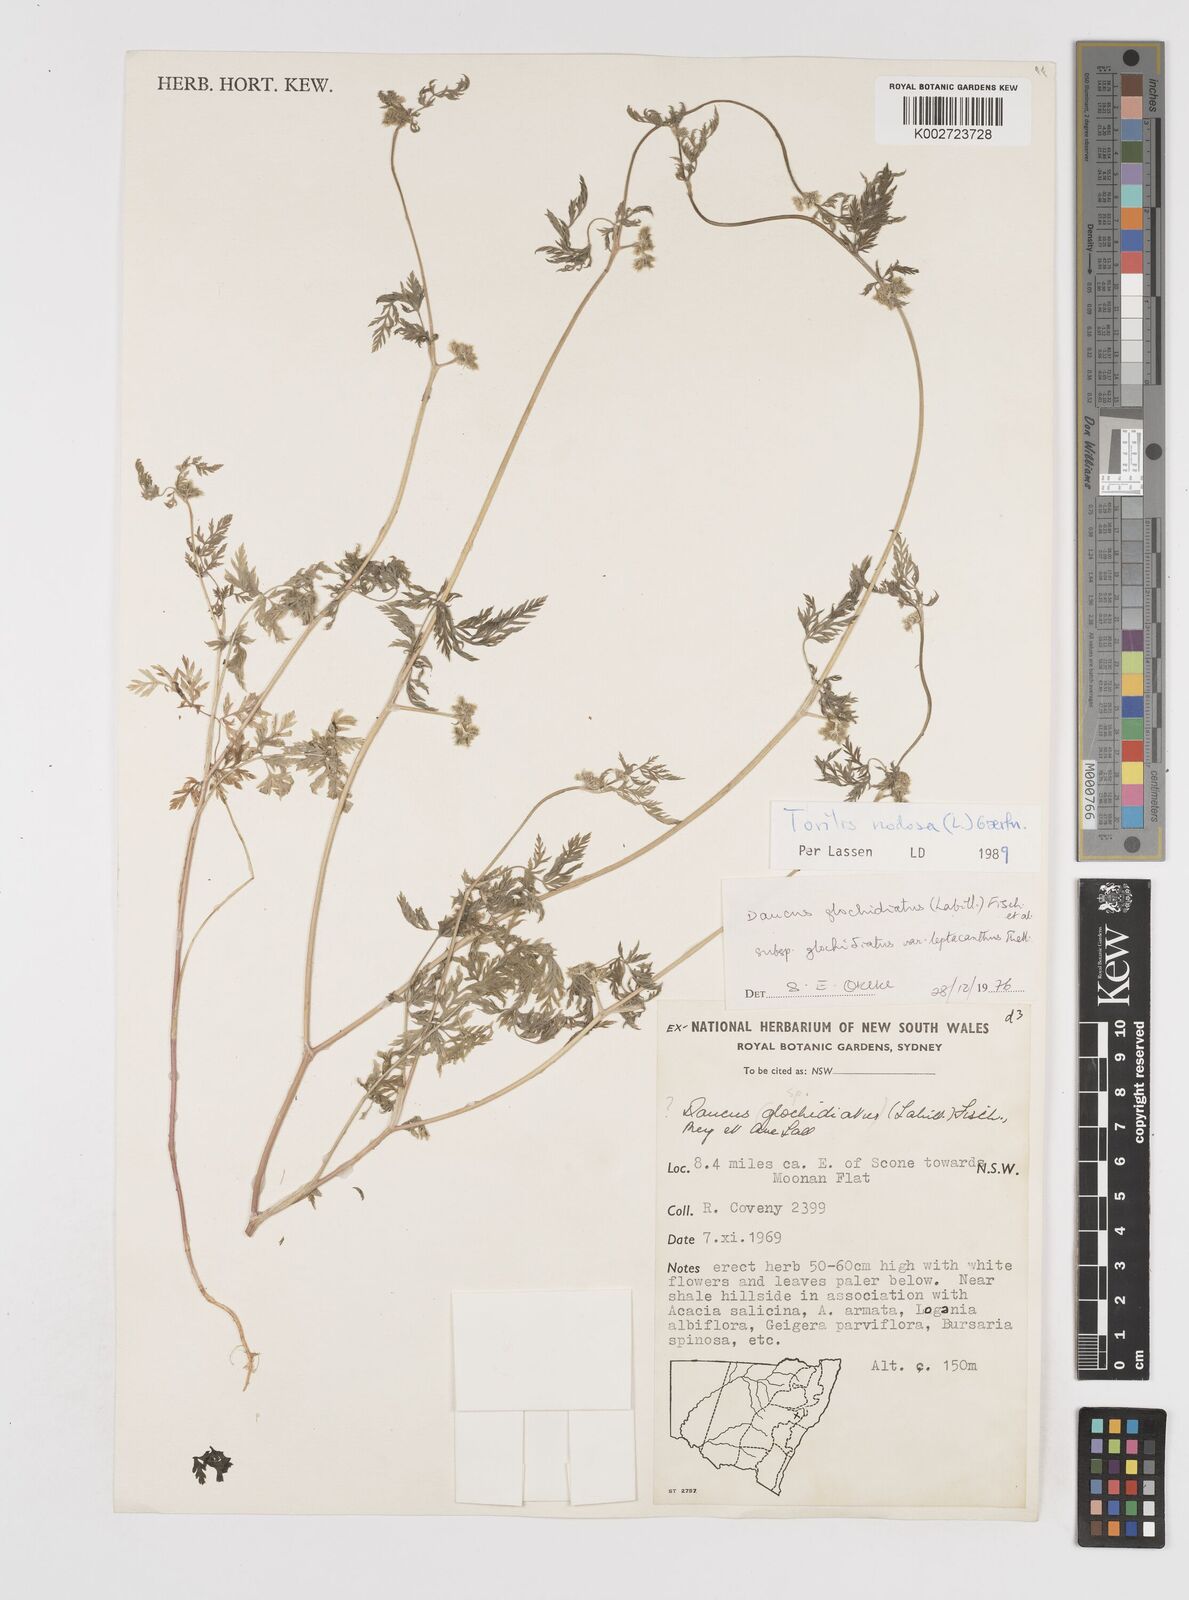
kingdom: Plantae
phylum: Tracheophyta
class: Magnoliopsida
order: Apiales
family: Apiaceae
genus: Torilis
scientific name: Torilis nodosa
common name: Knotted hedge-parsley
